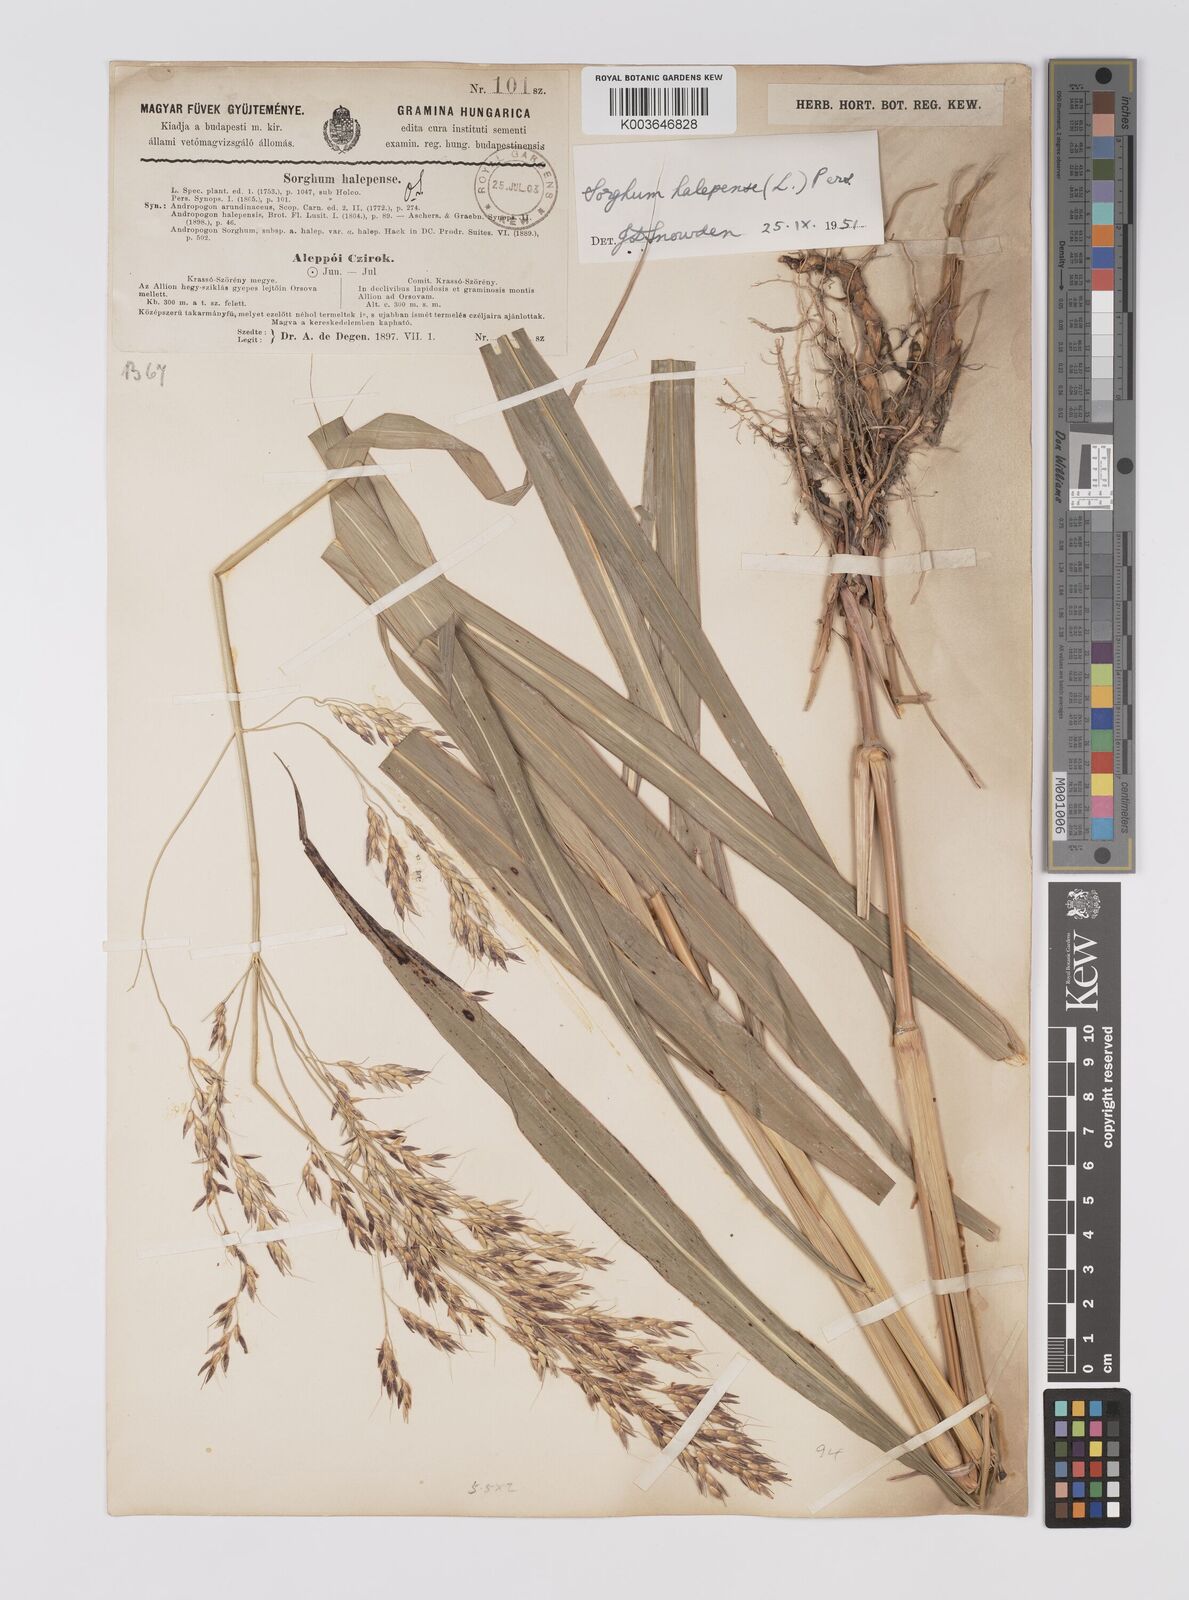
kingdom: Plantae
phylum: Tracheophyta
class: Liliopsida
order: Poales
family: Poaceae
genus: Sorghum
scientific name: Sorghum halepense
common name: Johnson-grass
